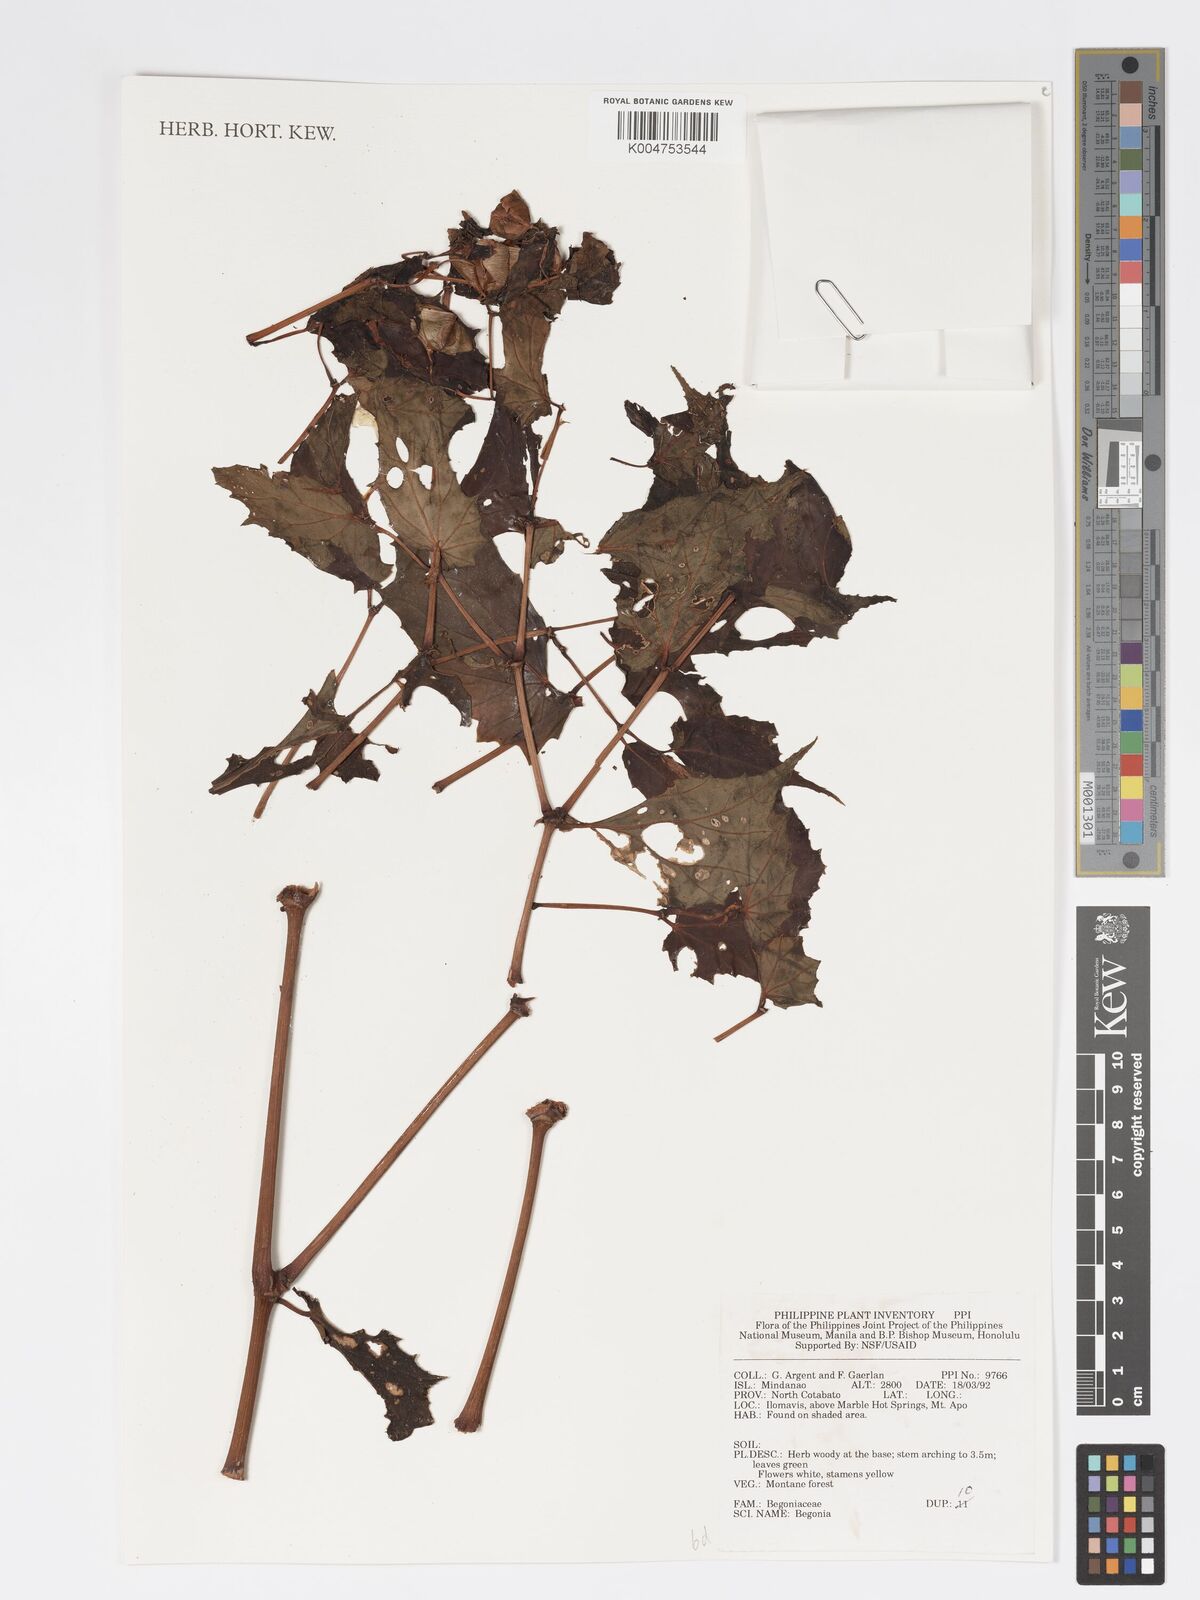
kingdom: Plantae
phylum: Tracheophyta
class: Magnoliopsida
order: Cucurbitales
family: Begoniaceae
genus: Begonia
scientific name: Begonia
